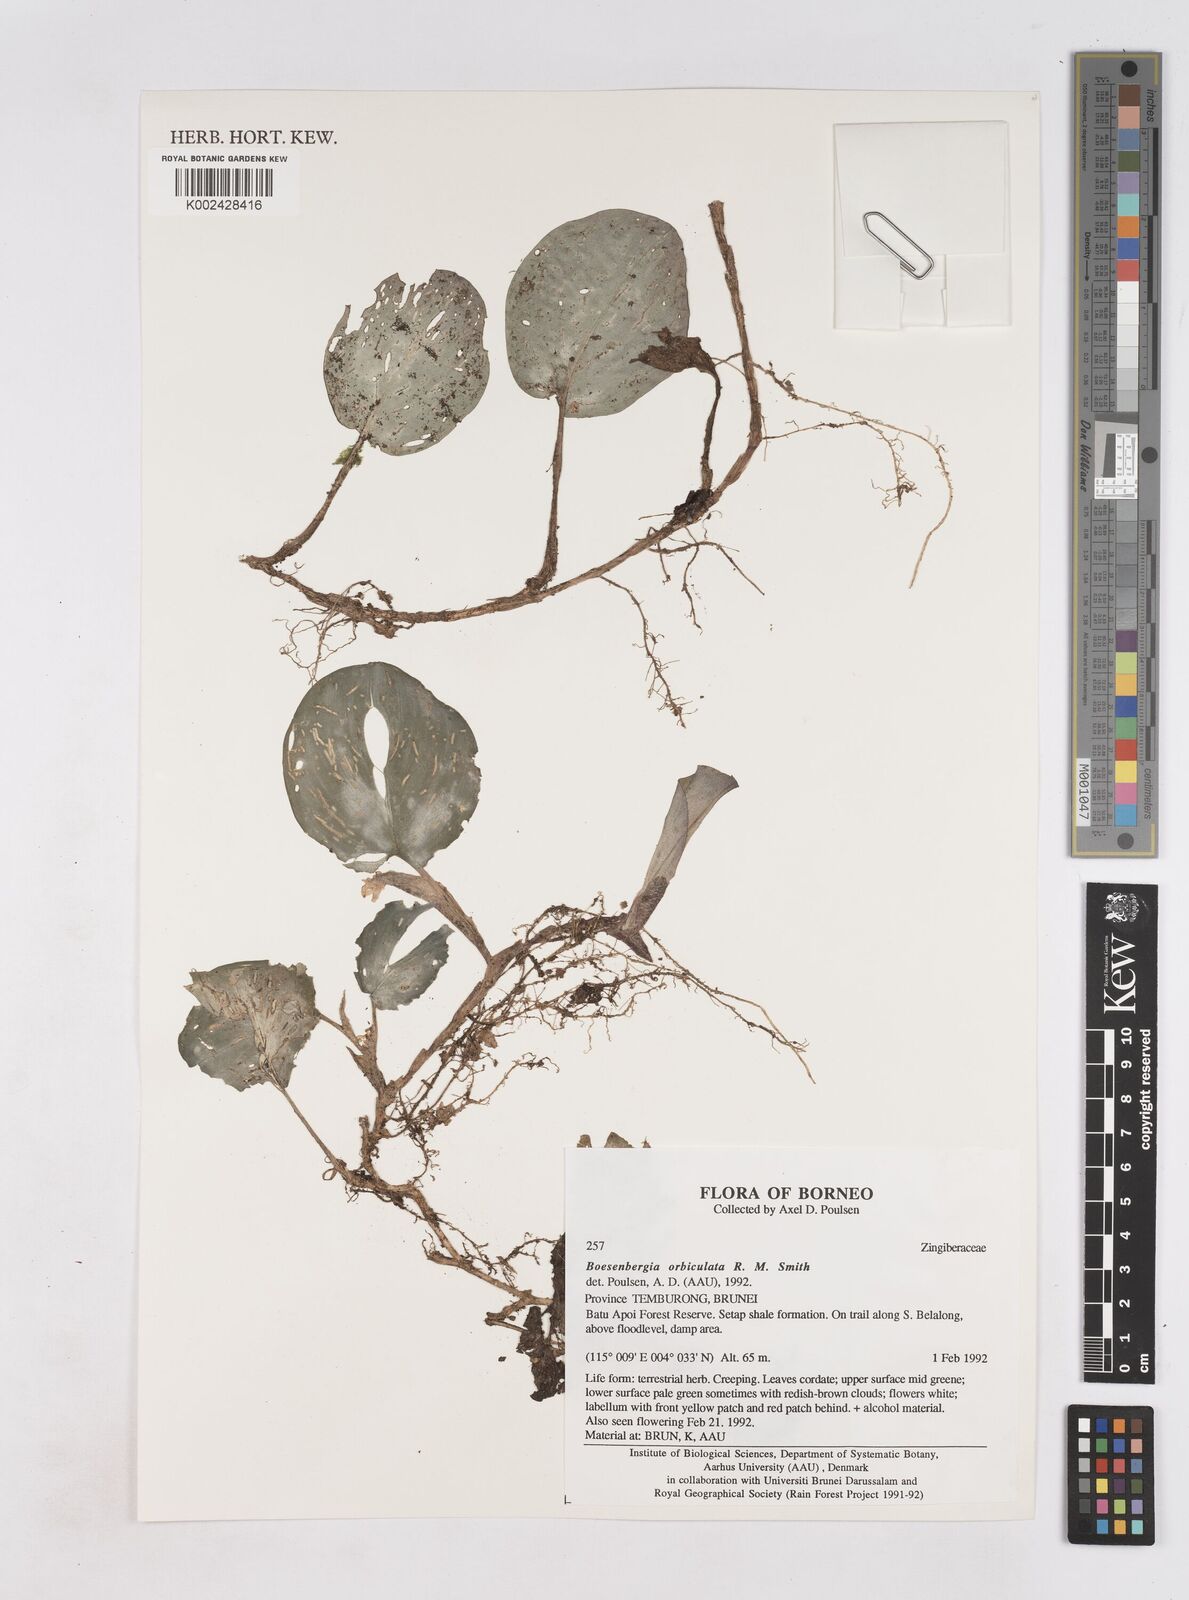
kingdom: Plantae
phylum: Tracheophyta
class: Liliopsida
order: Zingiberales
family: Zingiberaceae
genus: Boesenbergia
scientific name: Boesenbergia orbiculata
